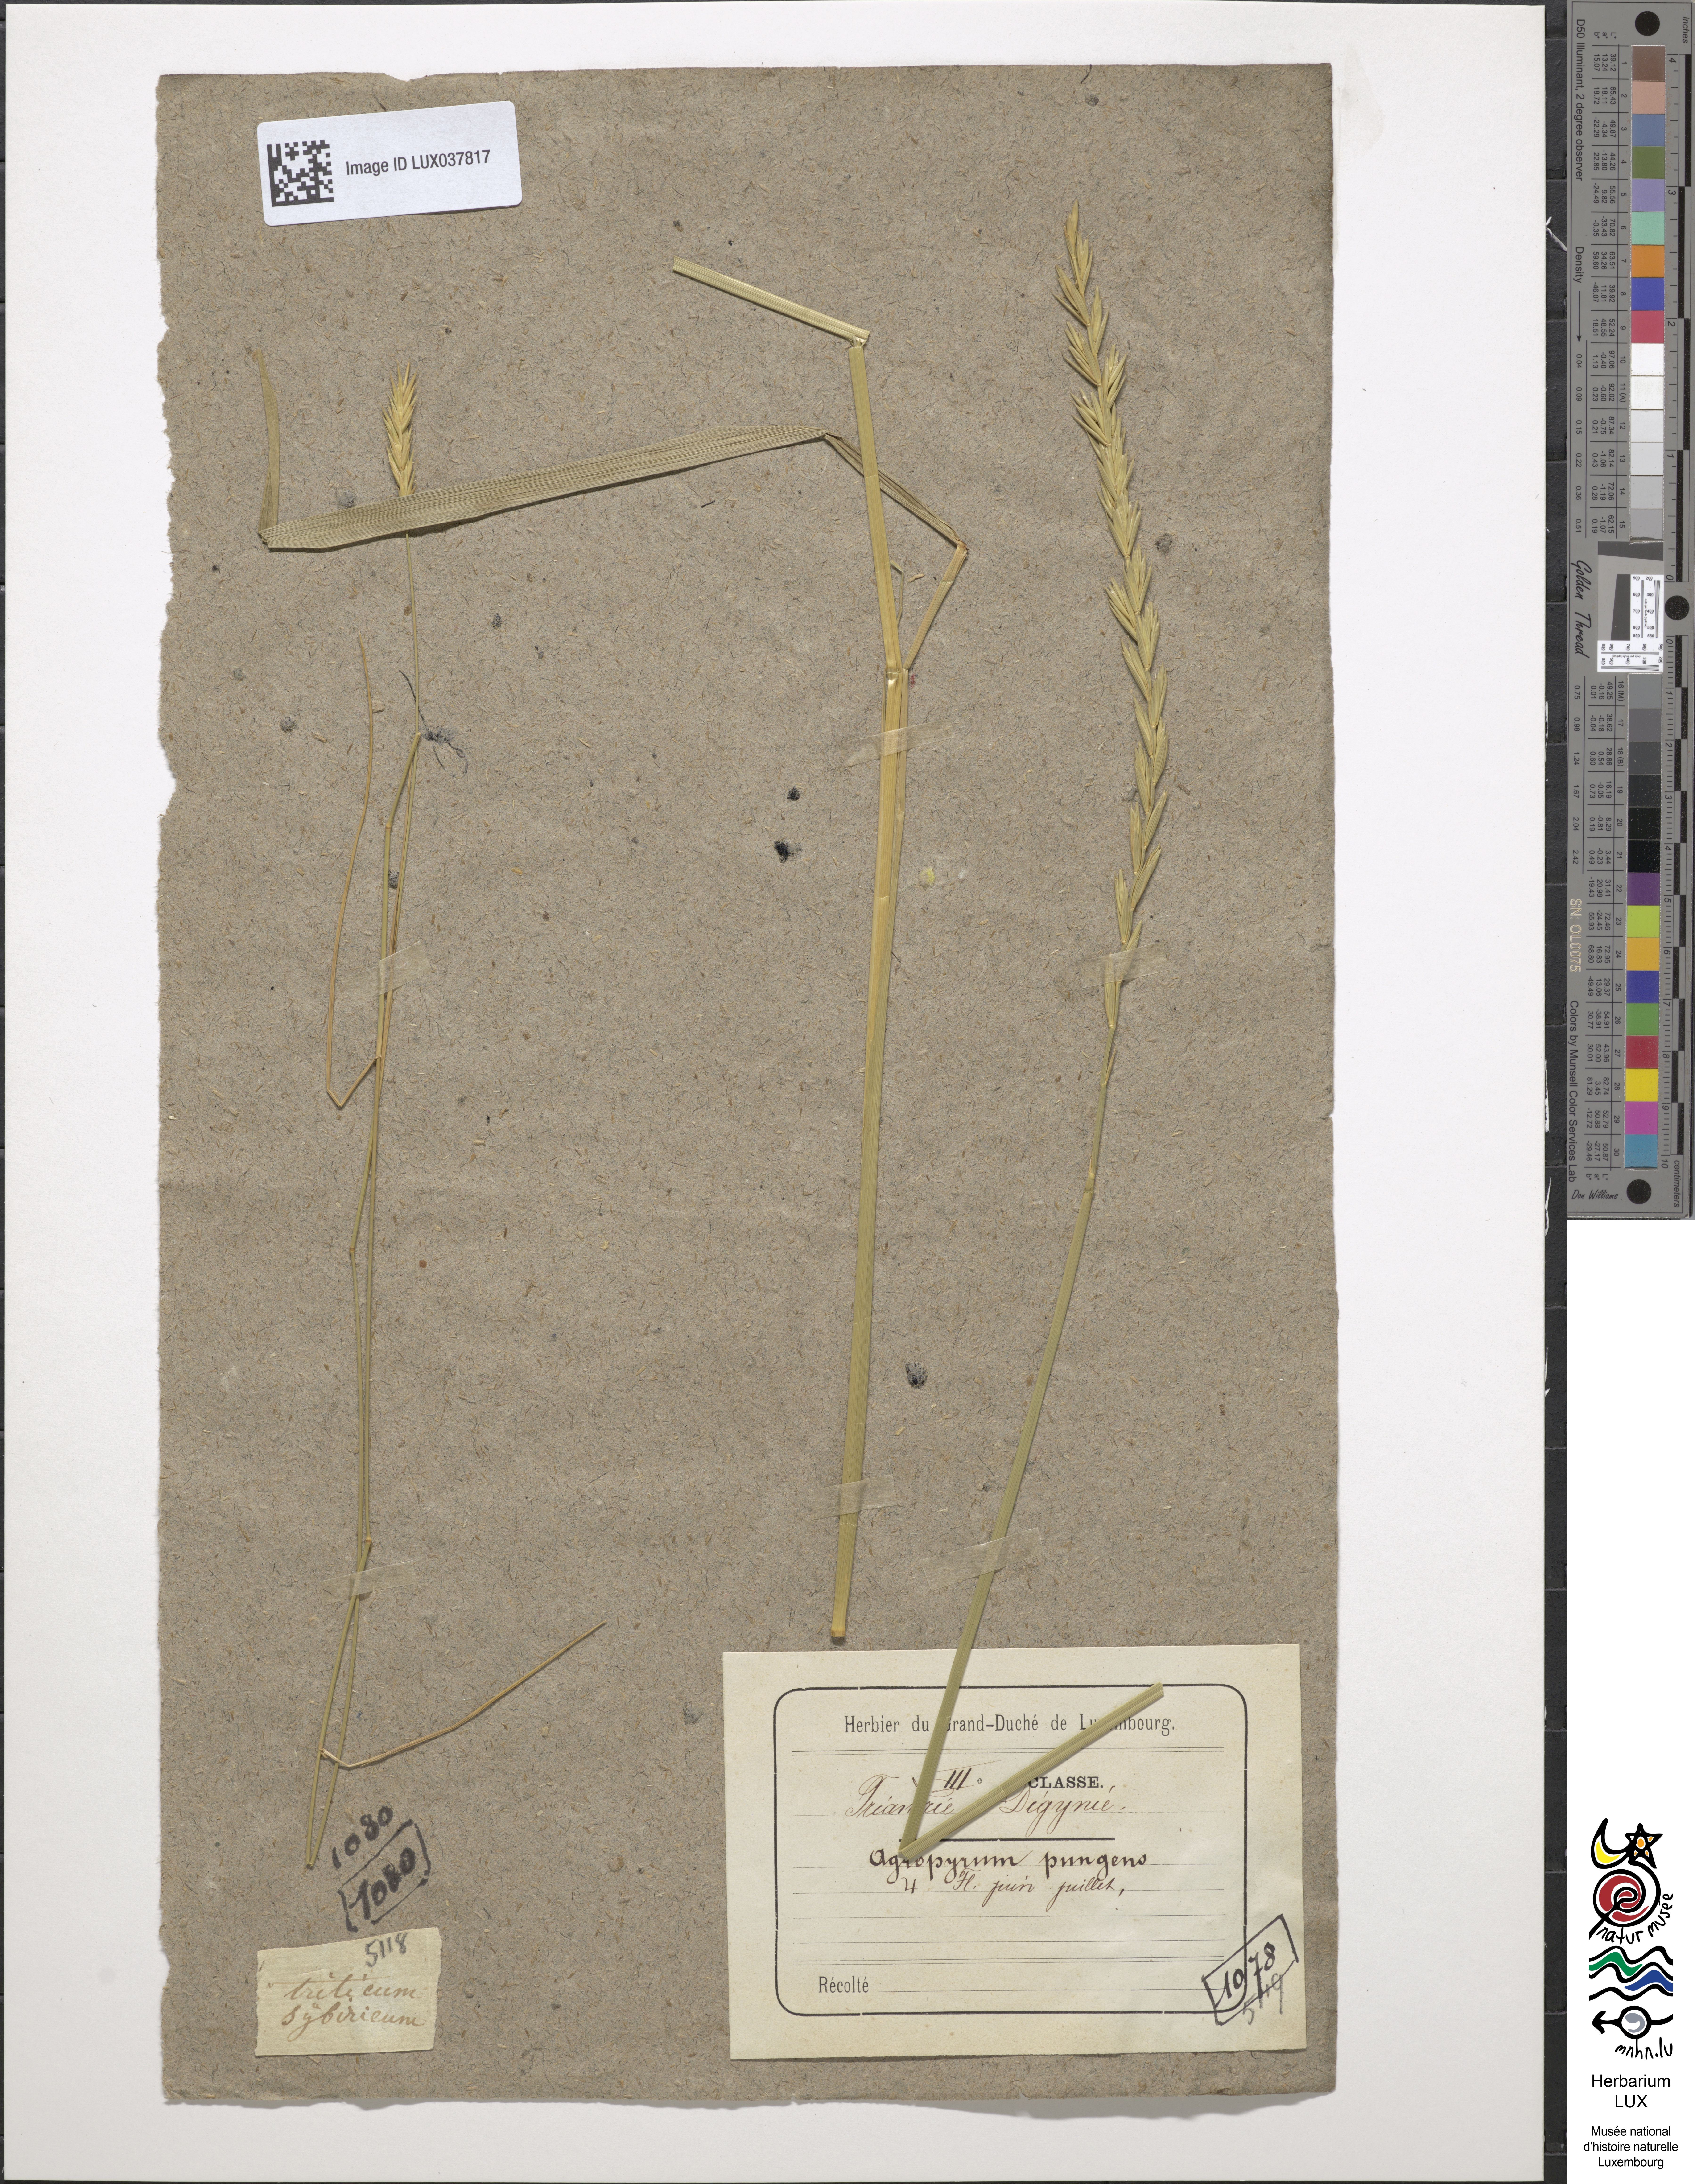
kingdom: Plantae
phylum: Tracheophyta
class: Liliopsida
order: Poales
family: Poaceae
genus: Elymus
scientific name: Elymus pungens
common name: Sea couch
